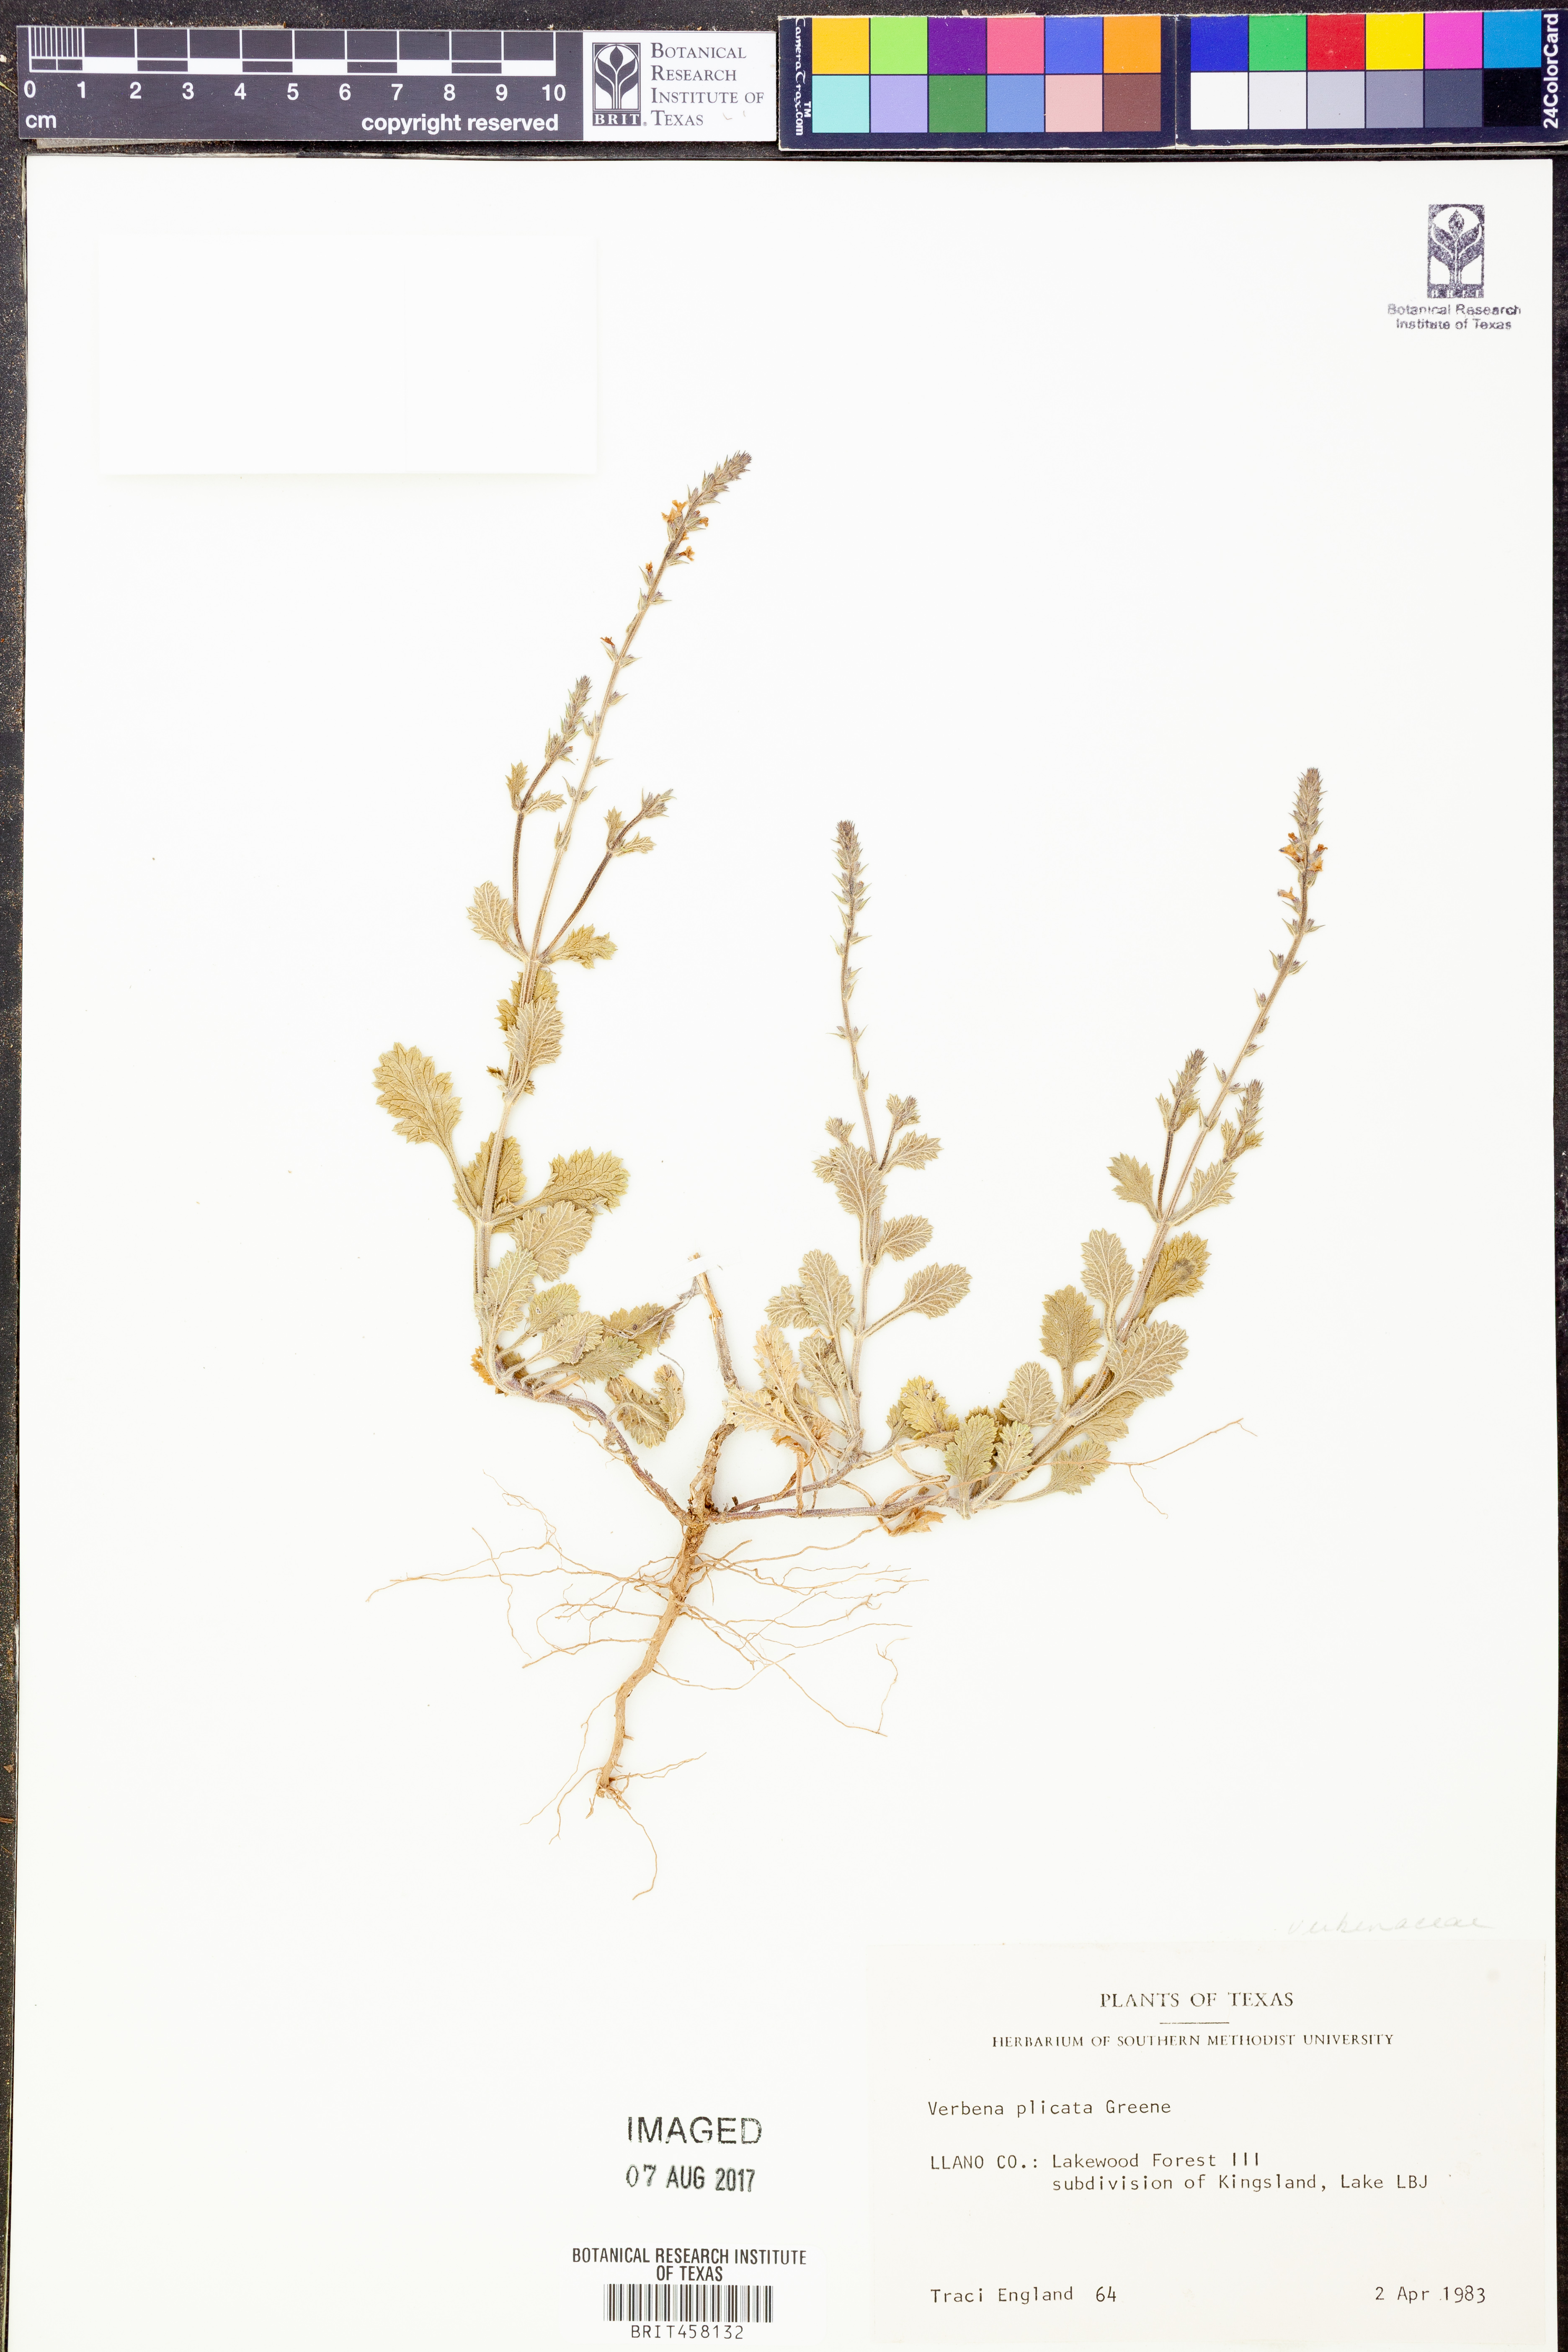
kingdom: Plantae
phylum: Tracheophyta
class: Magnoliopsida
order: Lamiales
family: Verbenaceae
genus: Verbena
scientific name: Verbena plicata
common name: Fan-leaf vervain
